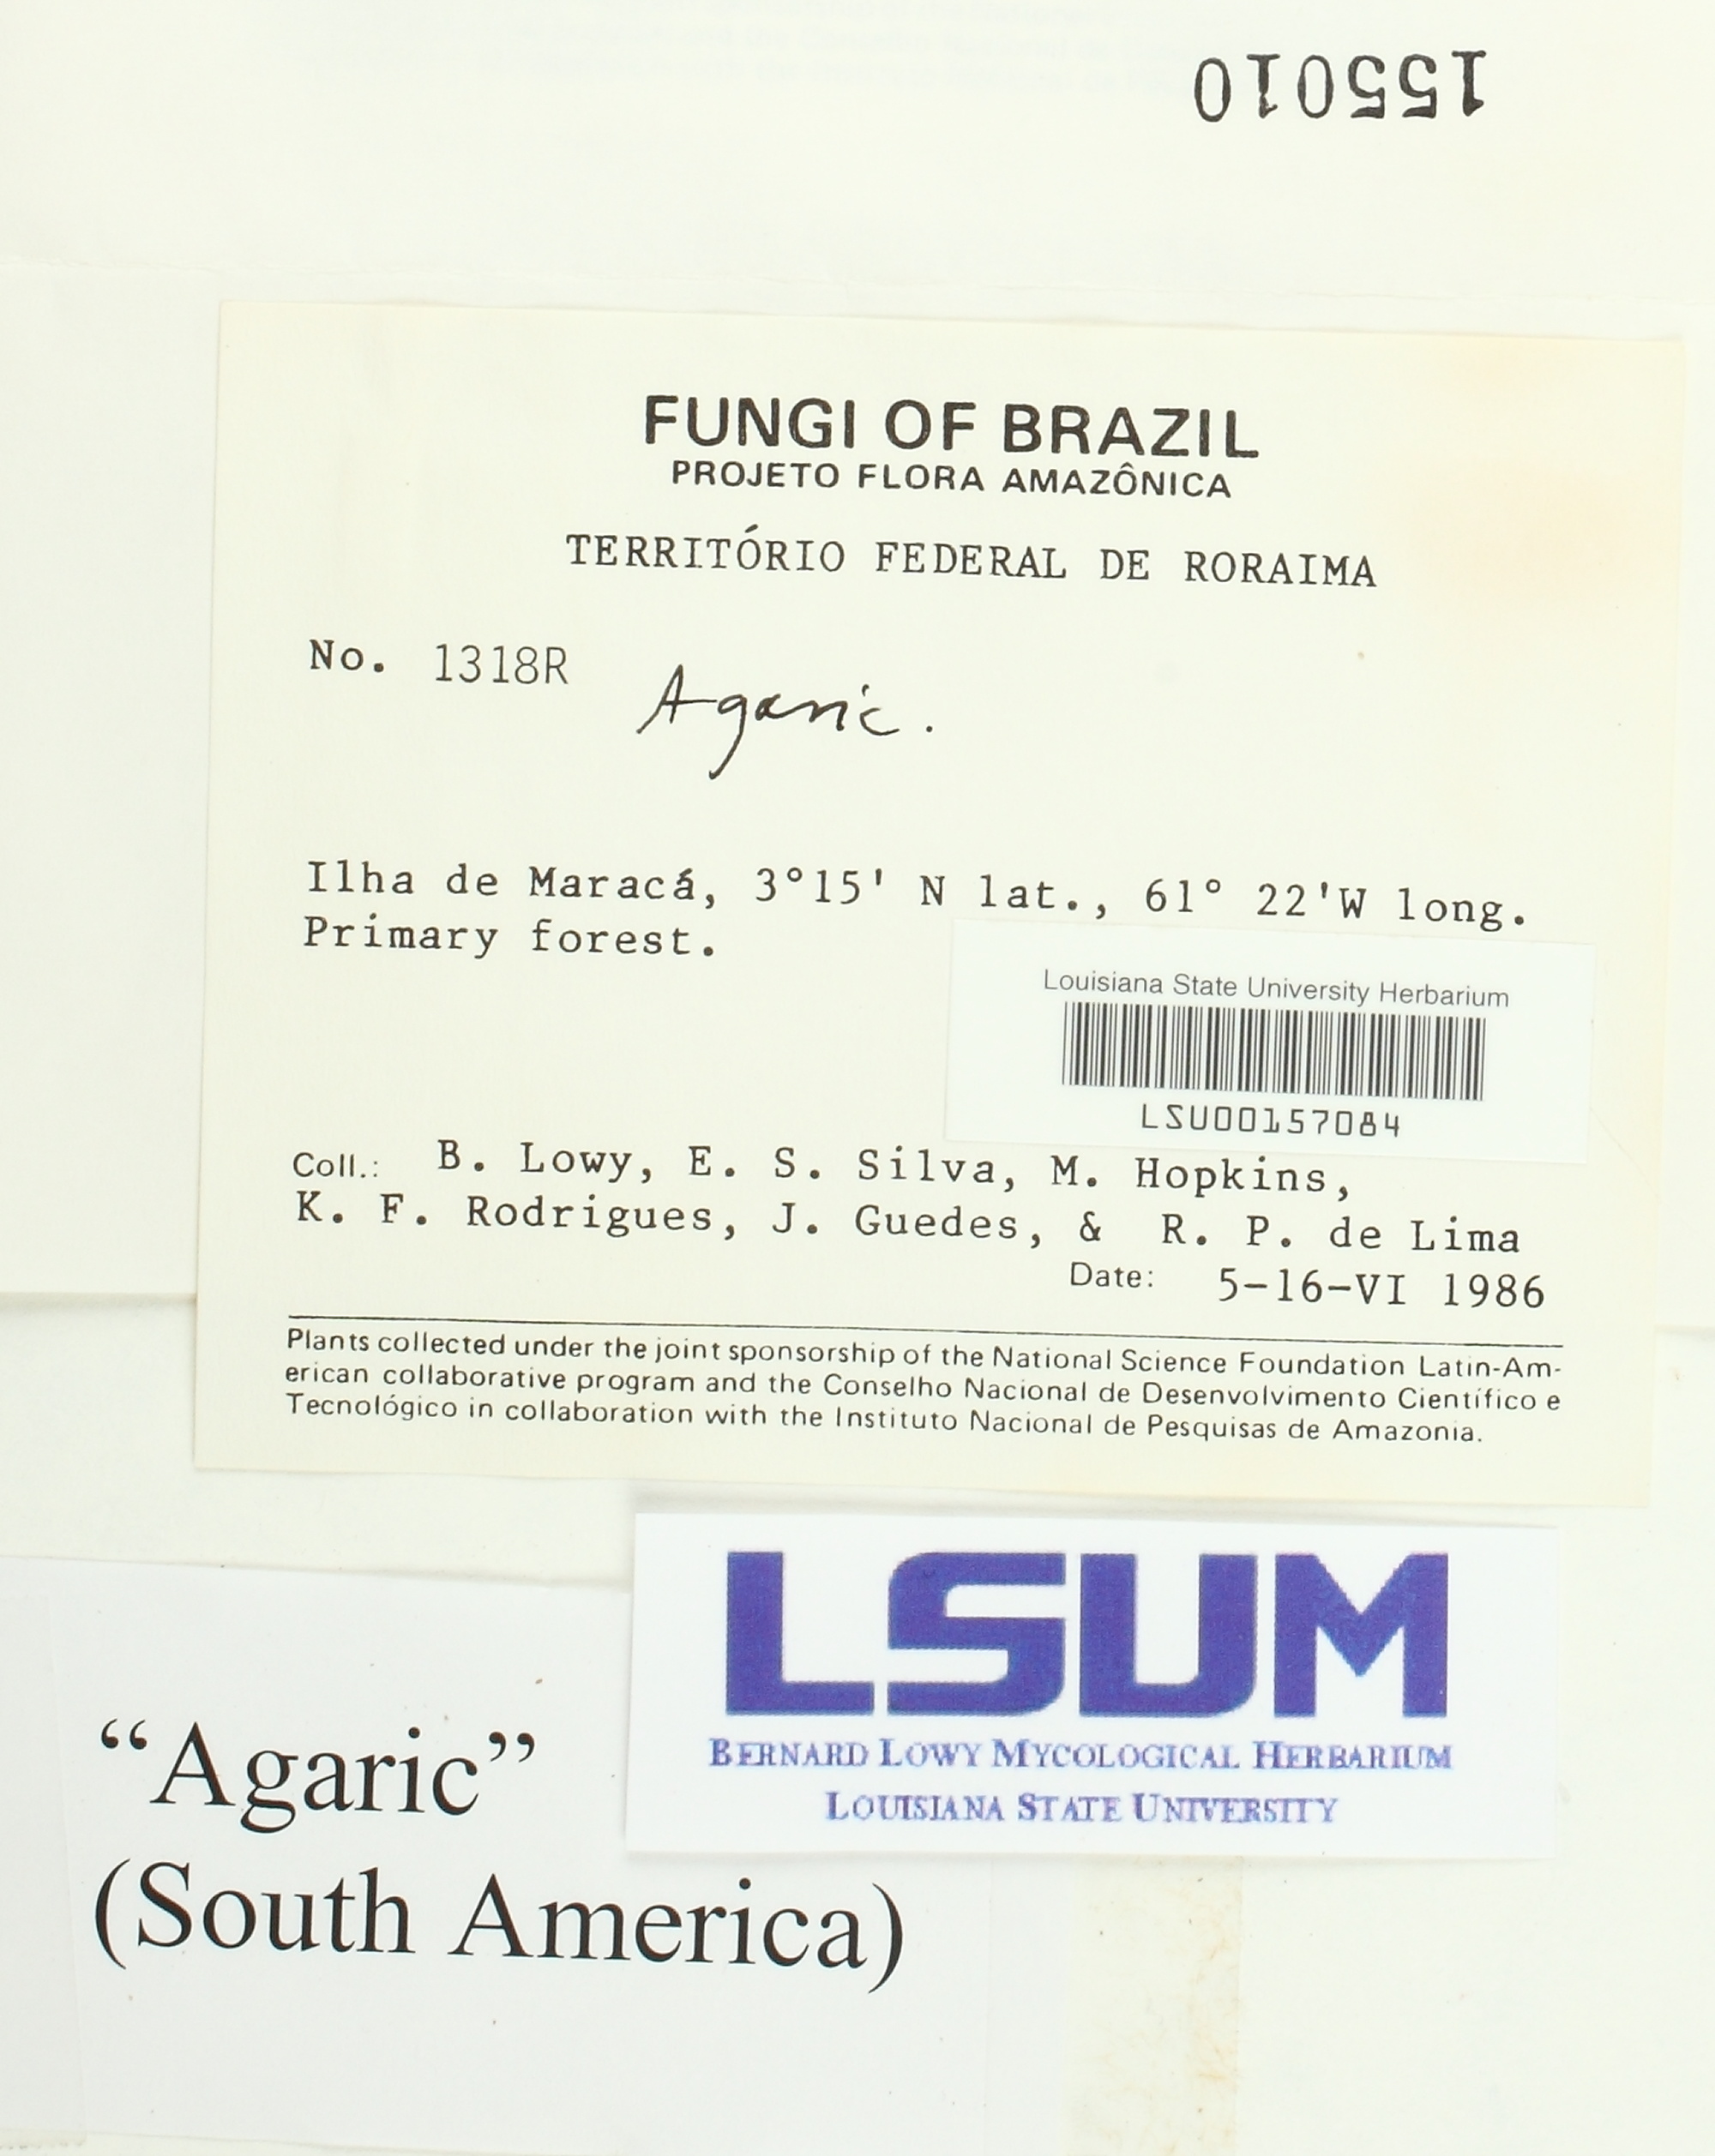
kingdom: Fungi
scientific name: Fungi
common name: Fungi
